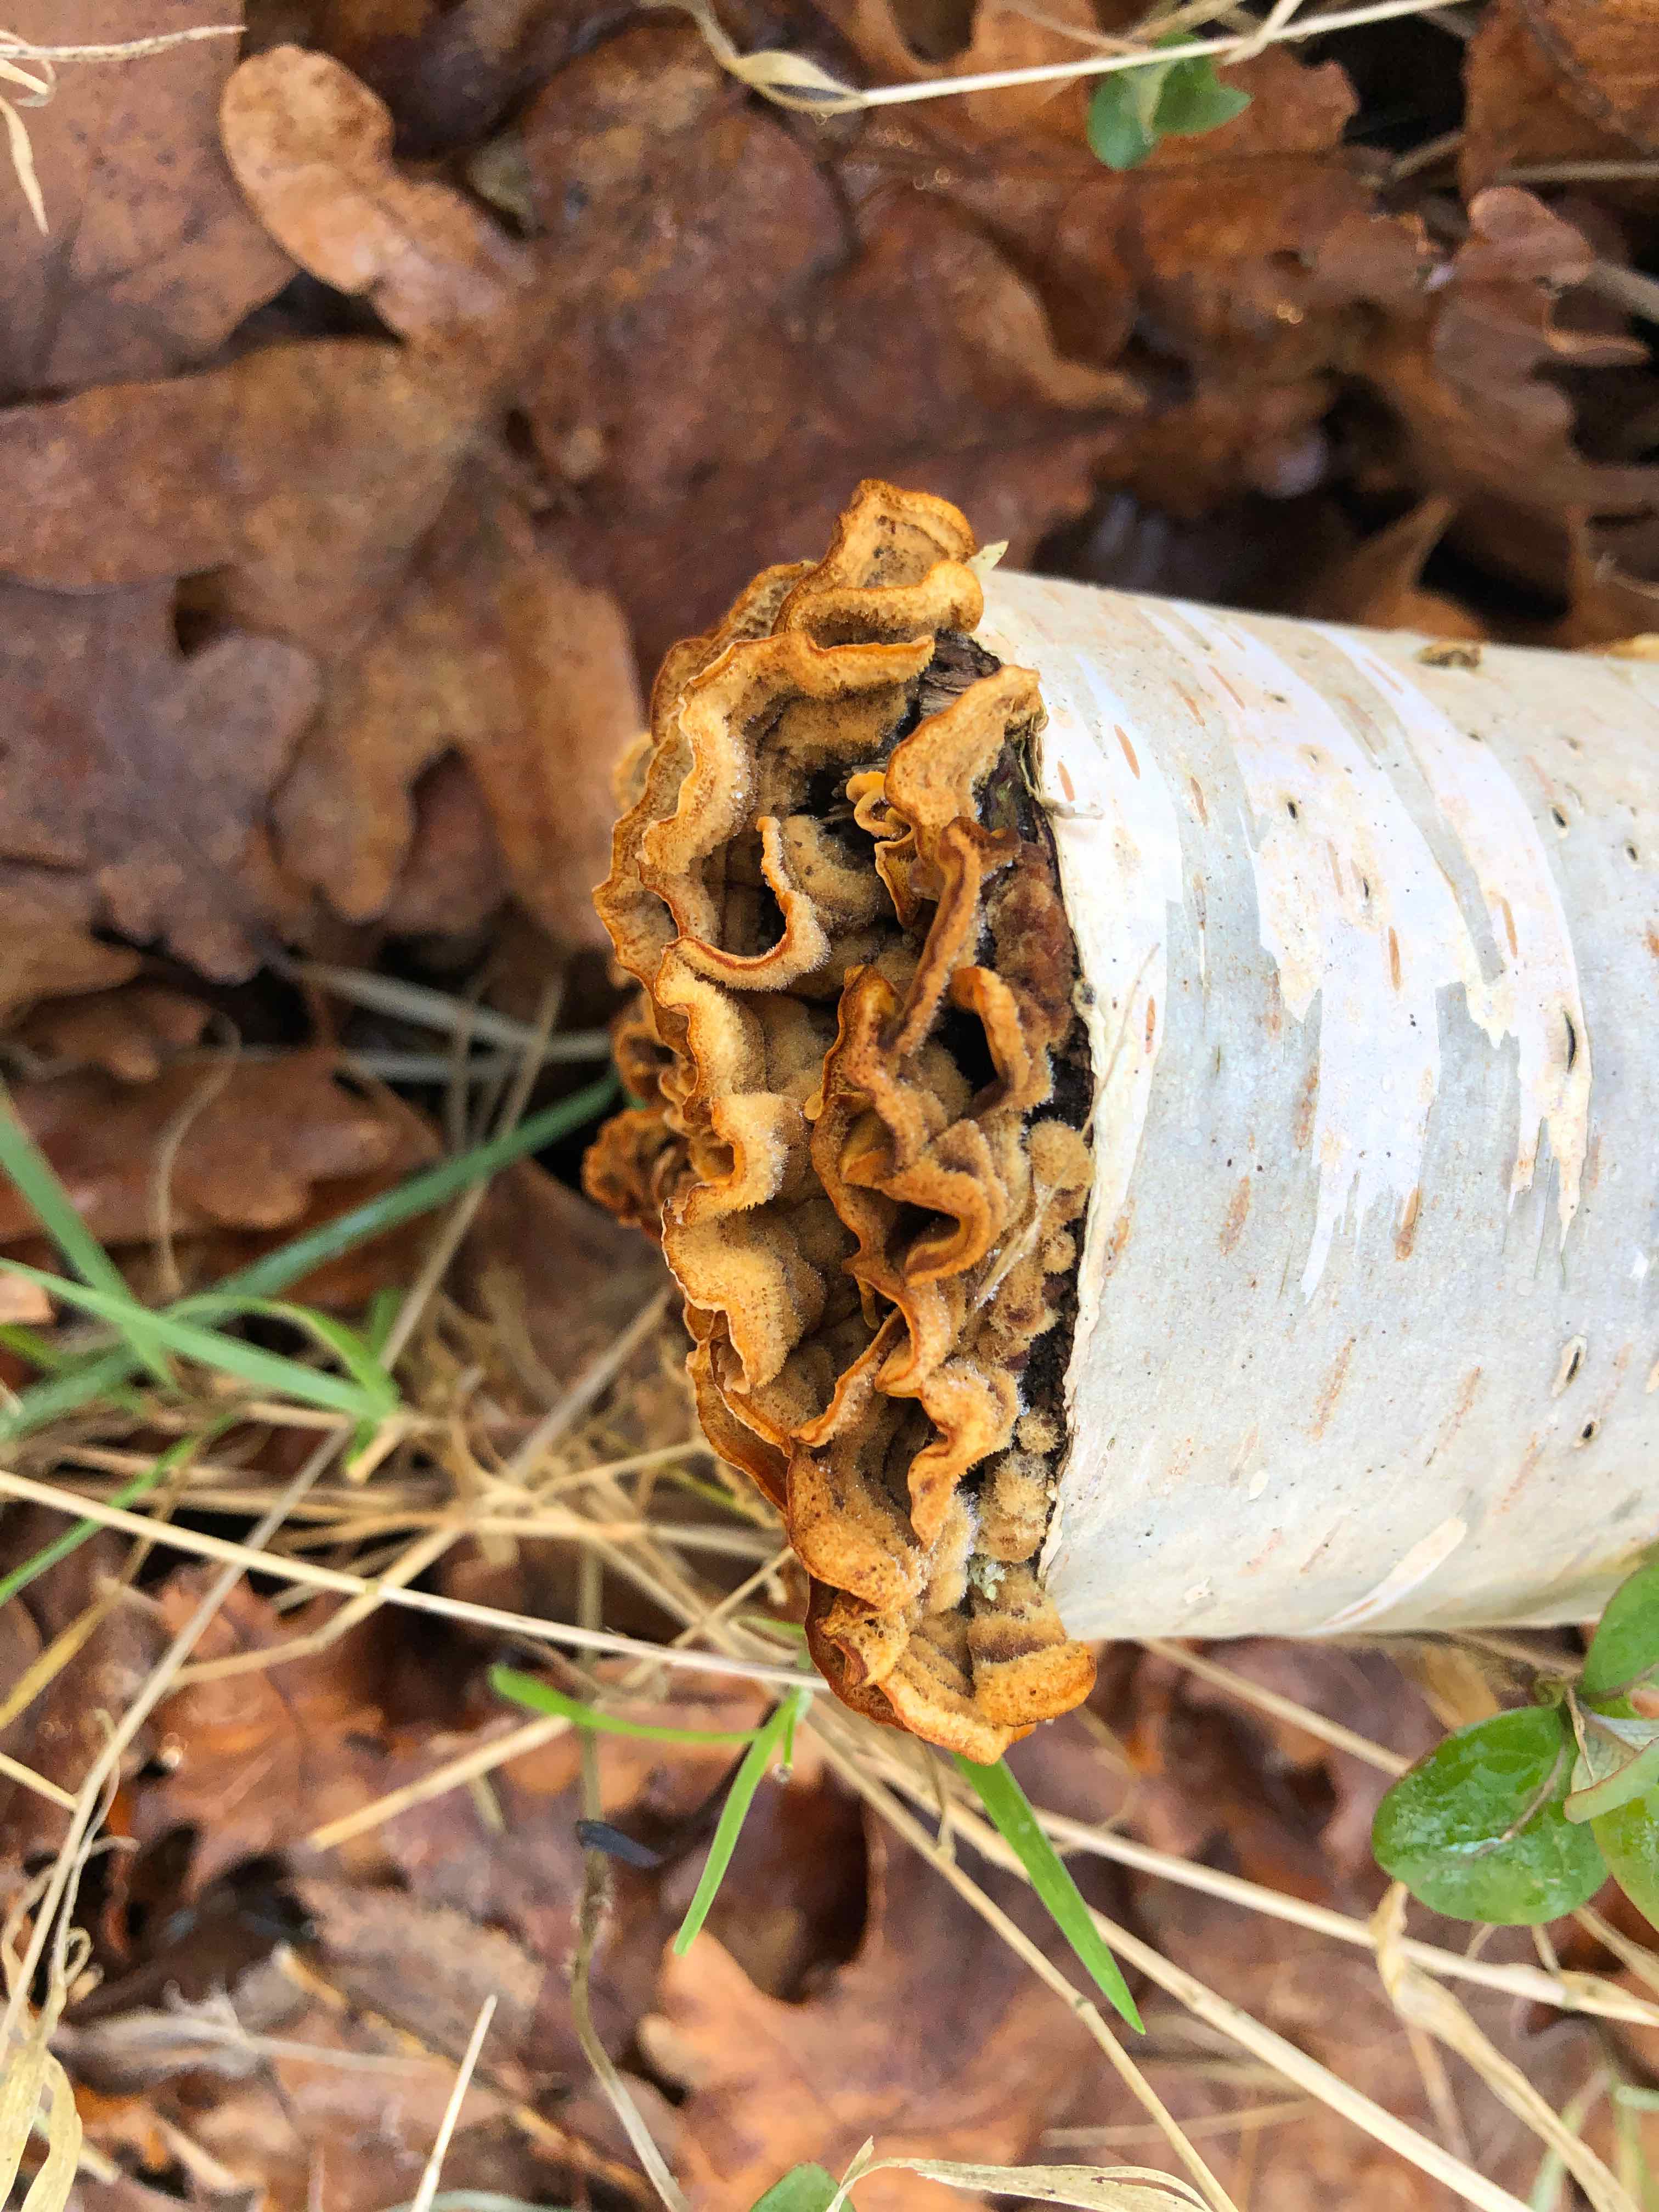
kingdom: Fungi
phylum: Basidiomycota
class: Agaricomycetes
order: Russulales
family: Stereaceae
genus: Stereum
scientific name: Stereum hirsutum
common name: håret lædersvamp
